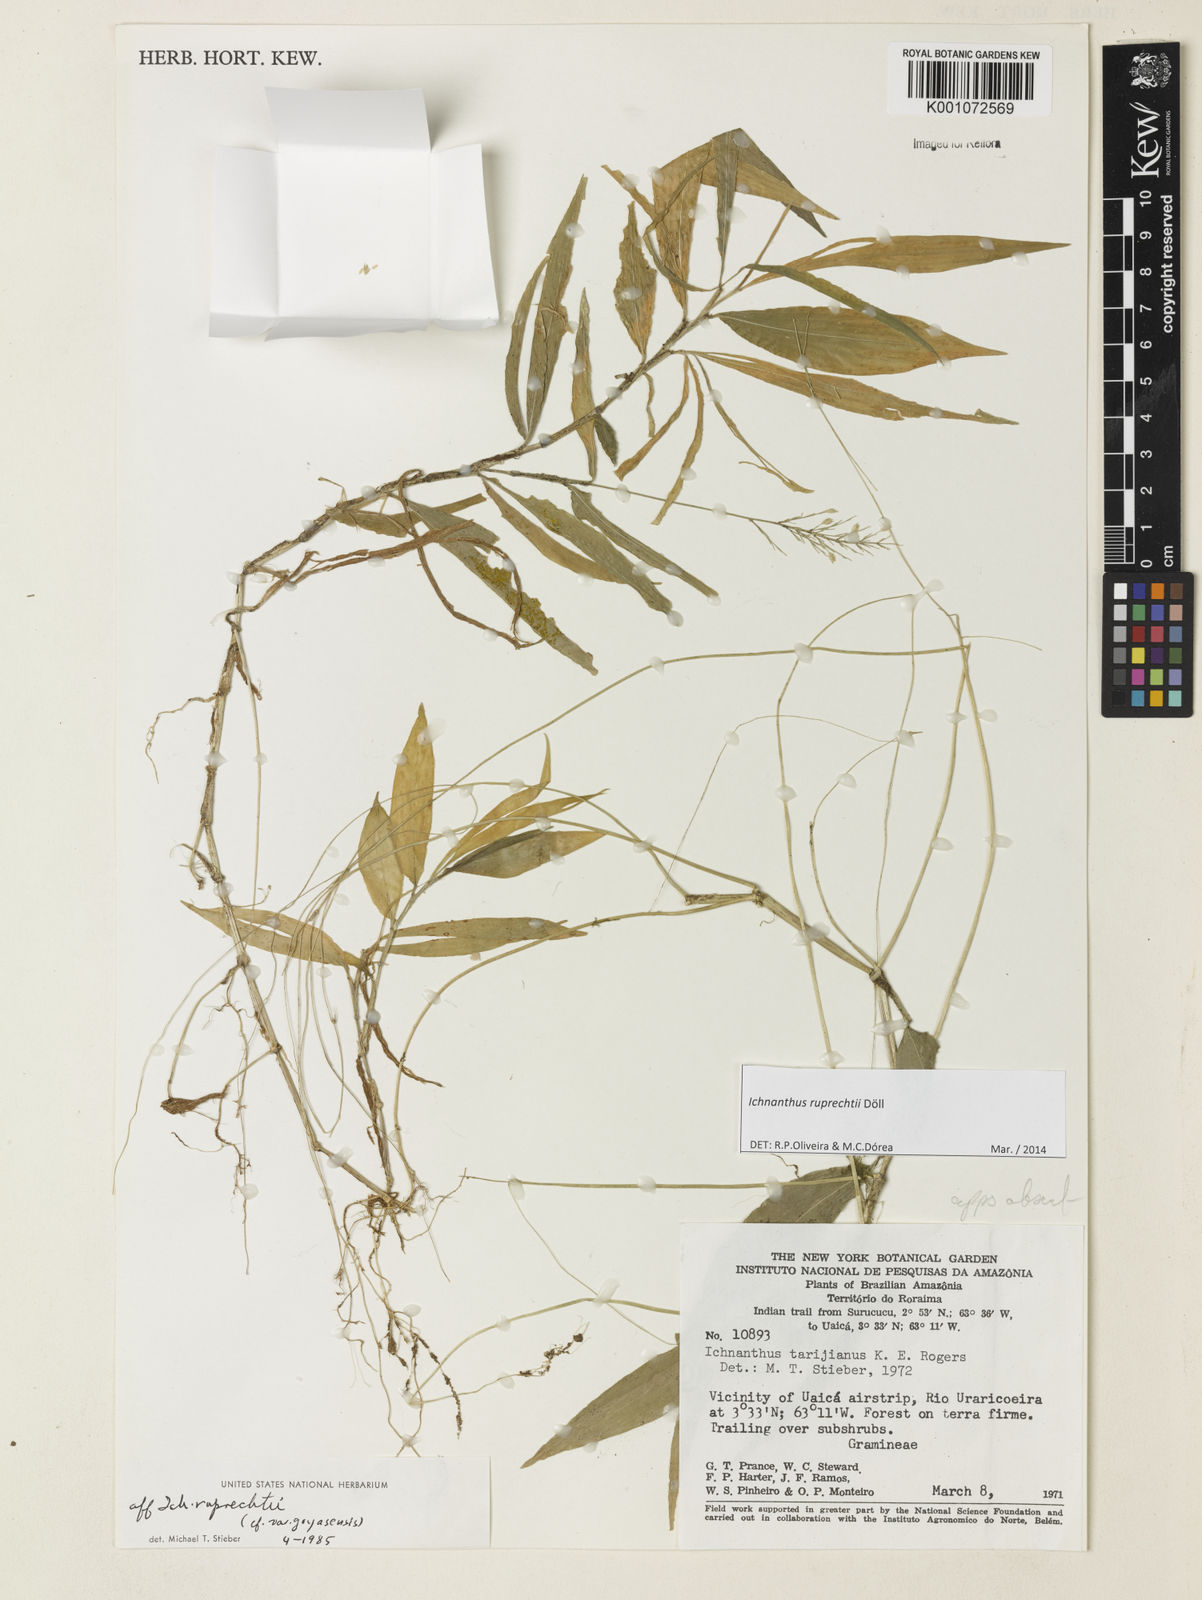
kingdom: Plantae
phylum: Tracheophyta
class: Liliopsida
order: Poales
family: Poaceae
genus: Ichnanthus
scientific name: Ichnanthus
